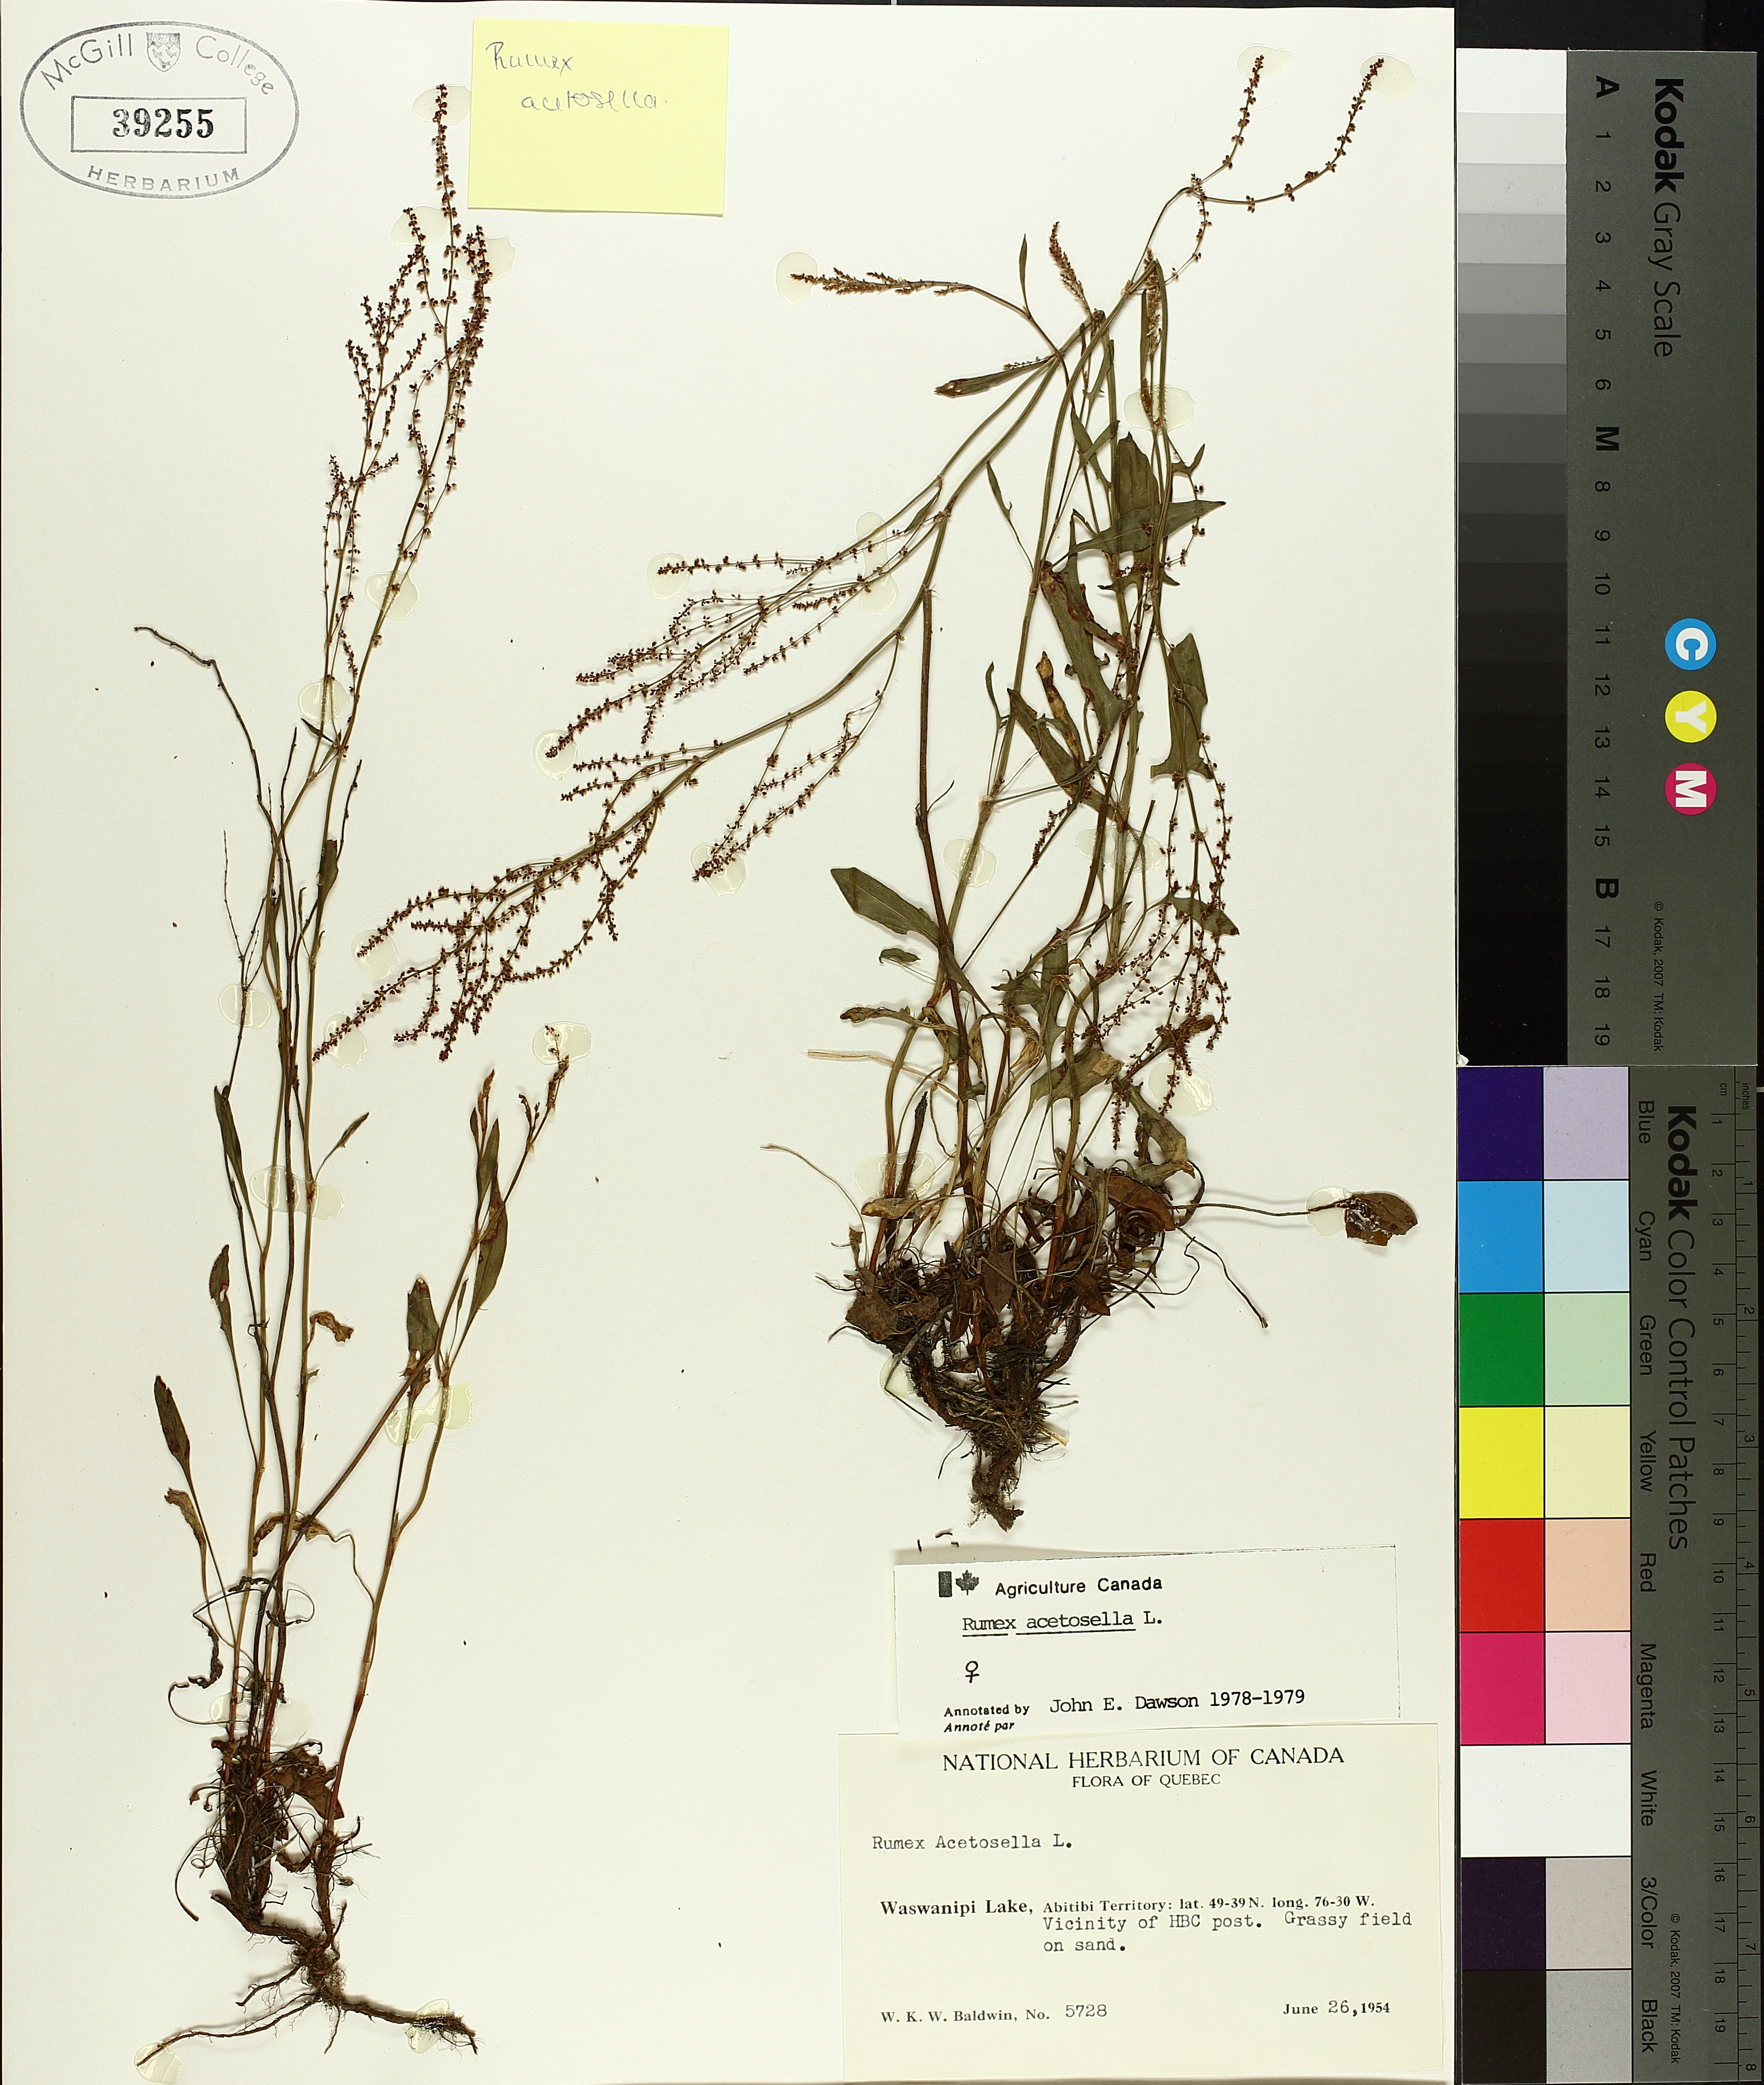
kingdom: Plantae
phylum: Tracheophyta
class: Magnoliopsida
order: Caryophyllales
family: Polygonaceae
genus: Rumex
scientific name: Rumex acetosella
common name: Common sheep sorrel
